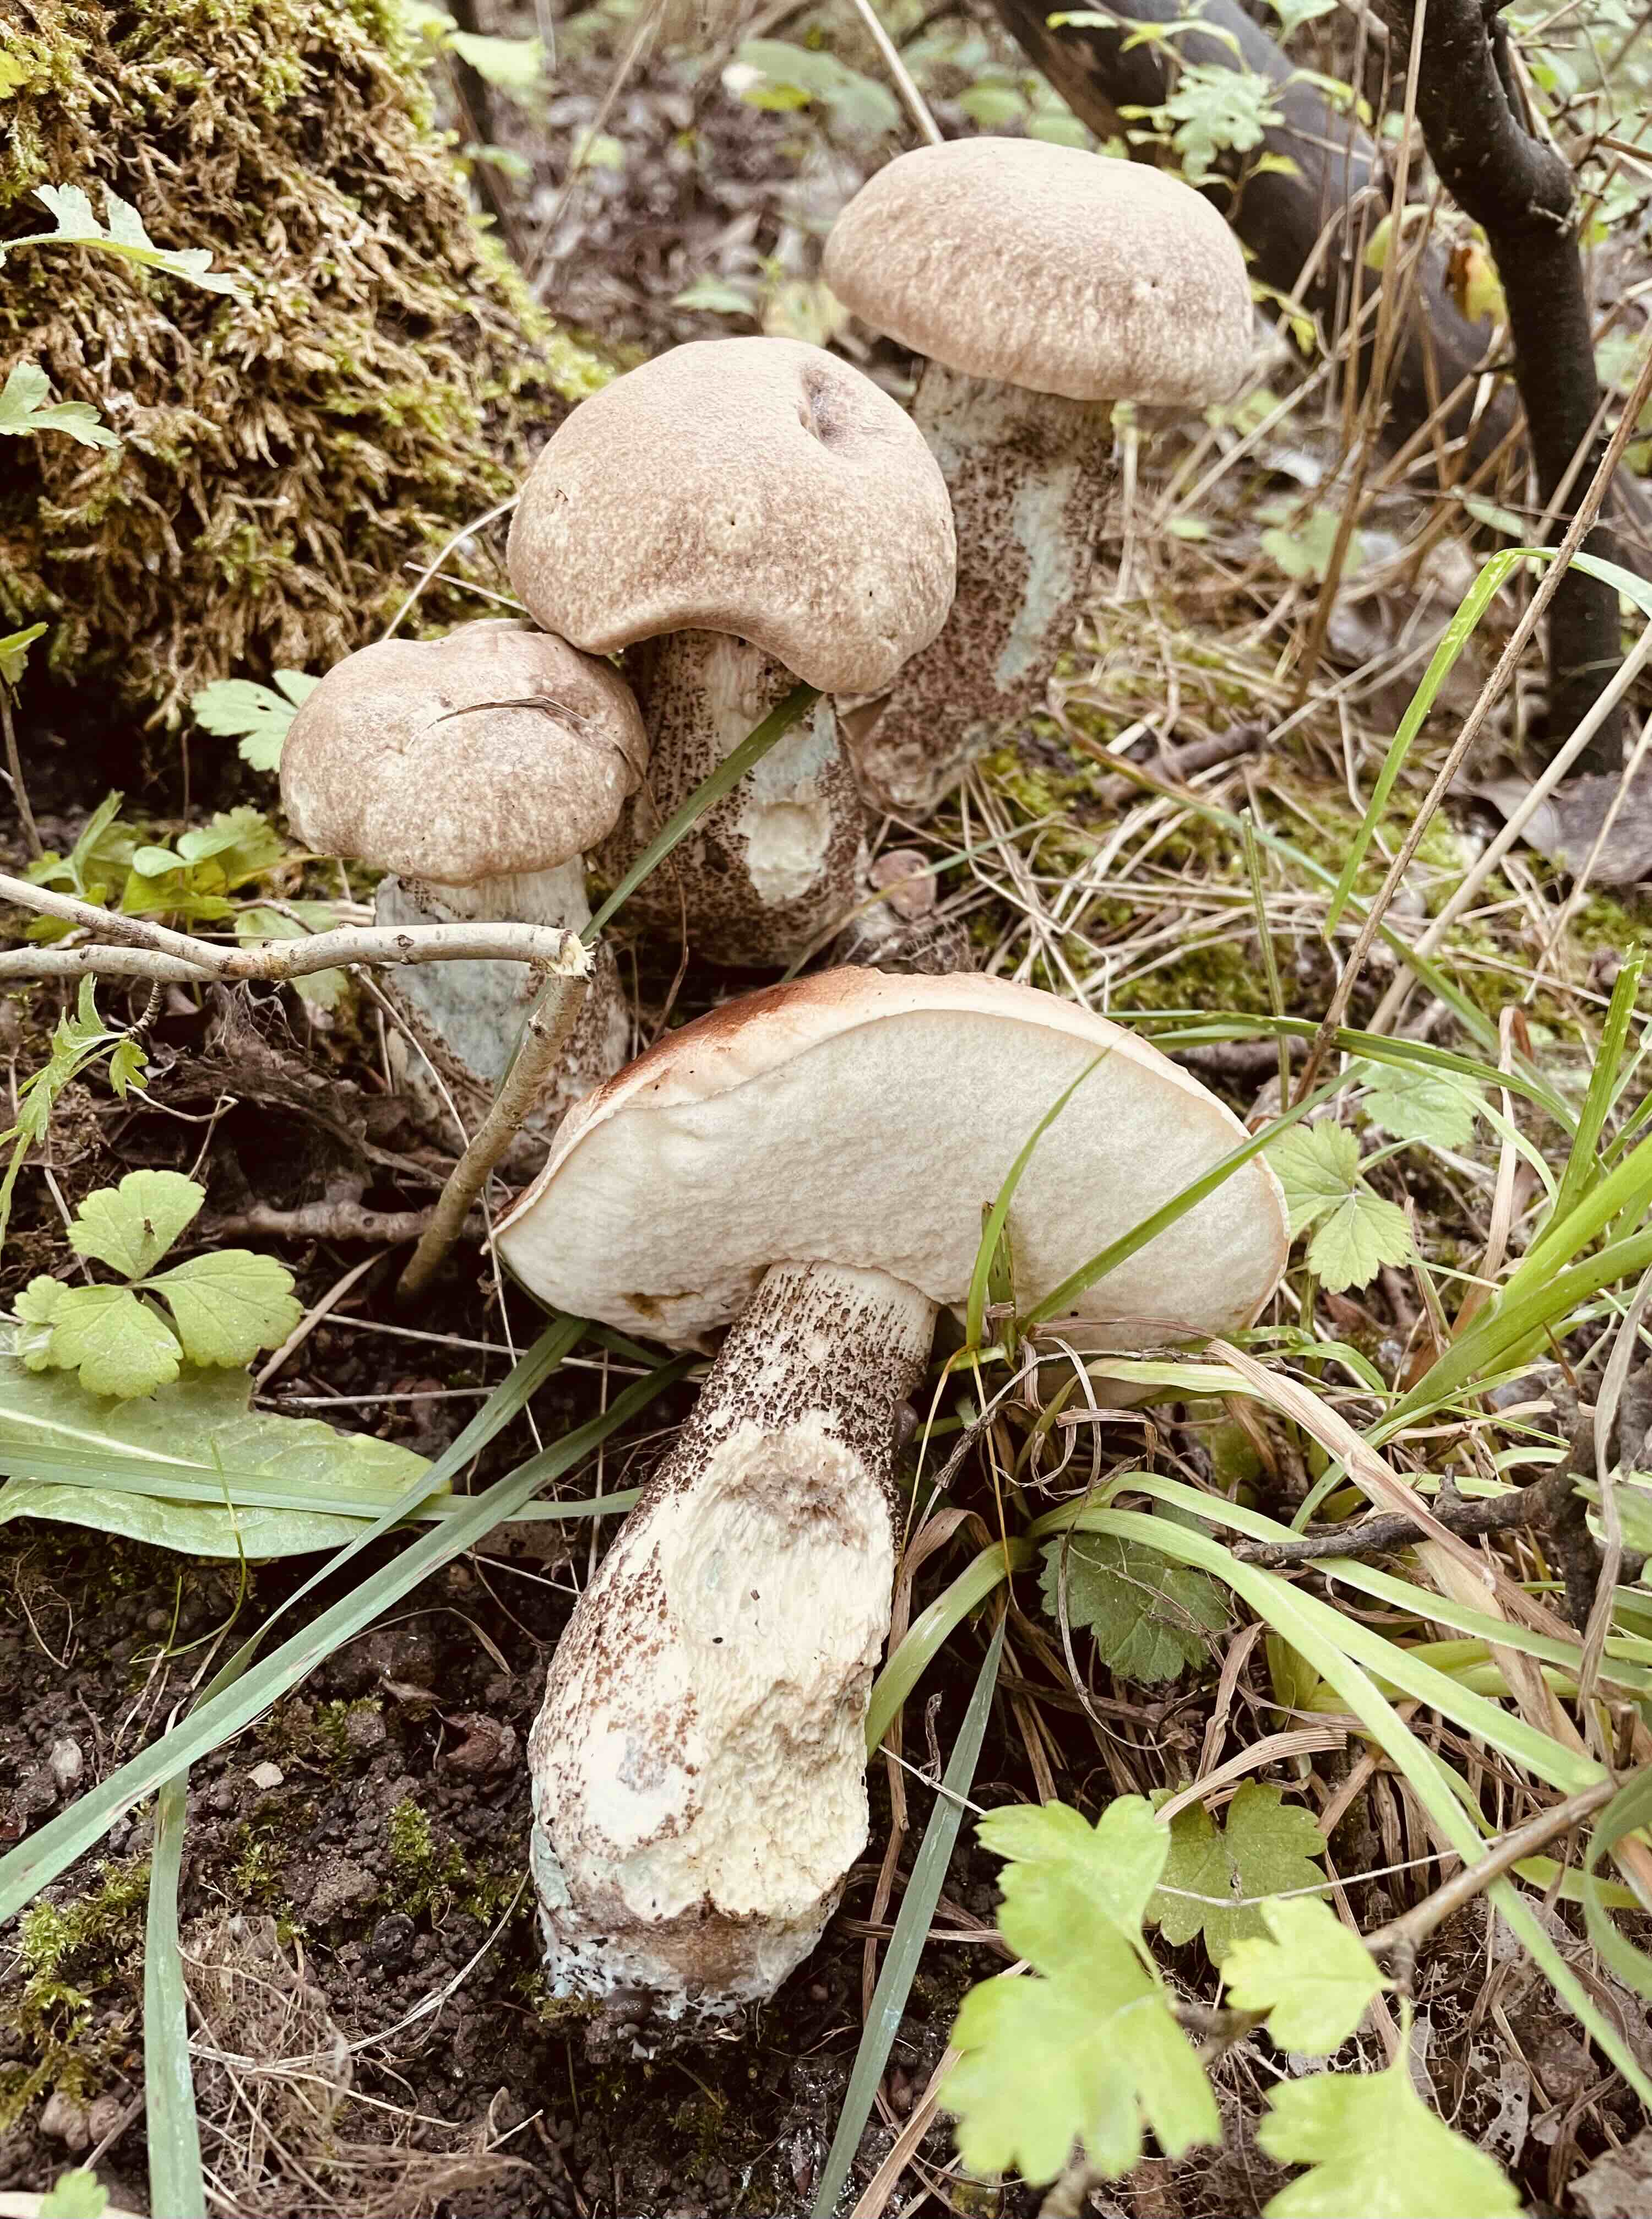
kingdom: Fungi
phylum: Basidiomycota
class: Agaricomycetes
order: Boletales
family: Boletaceae
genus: Leccinum
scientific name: Leccinum duriusculum
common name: poppel-skælrørhat
